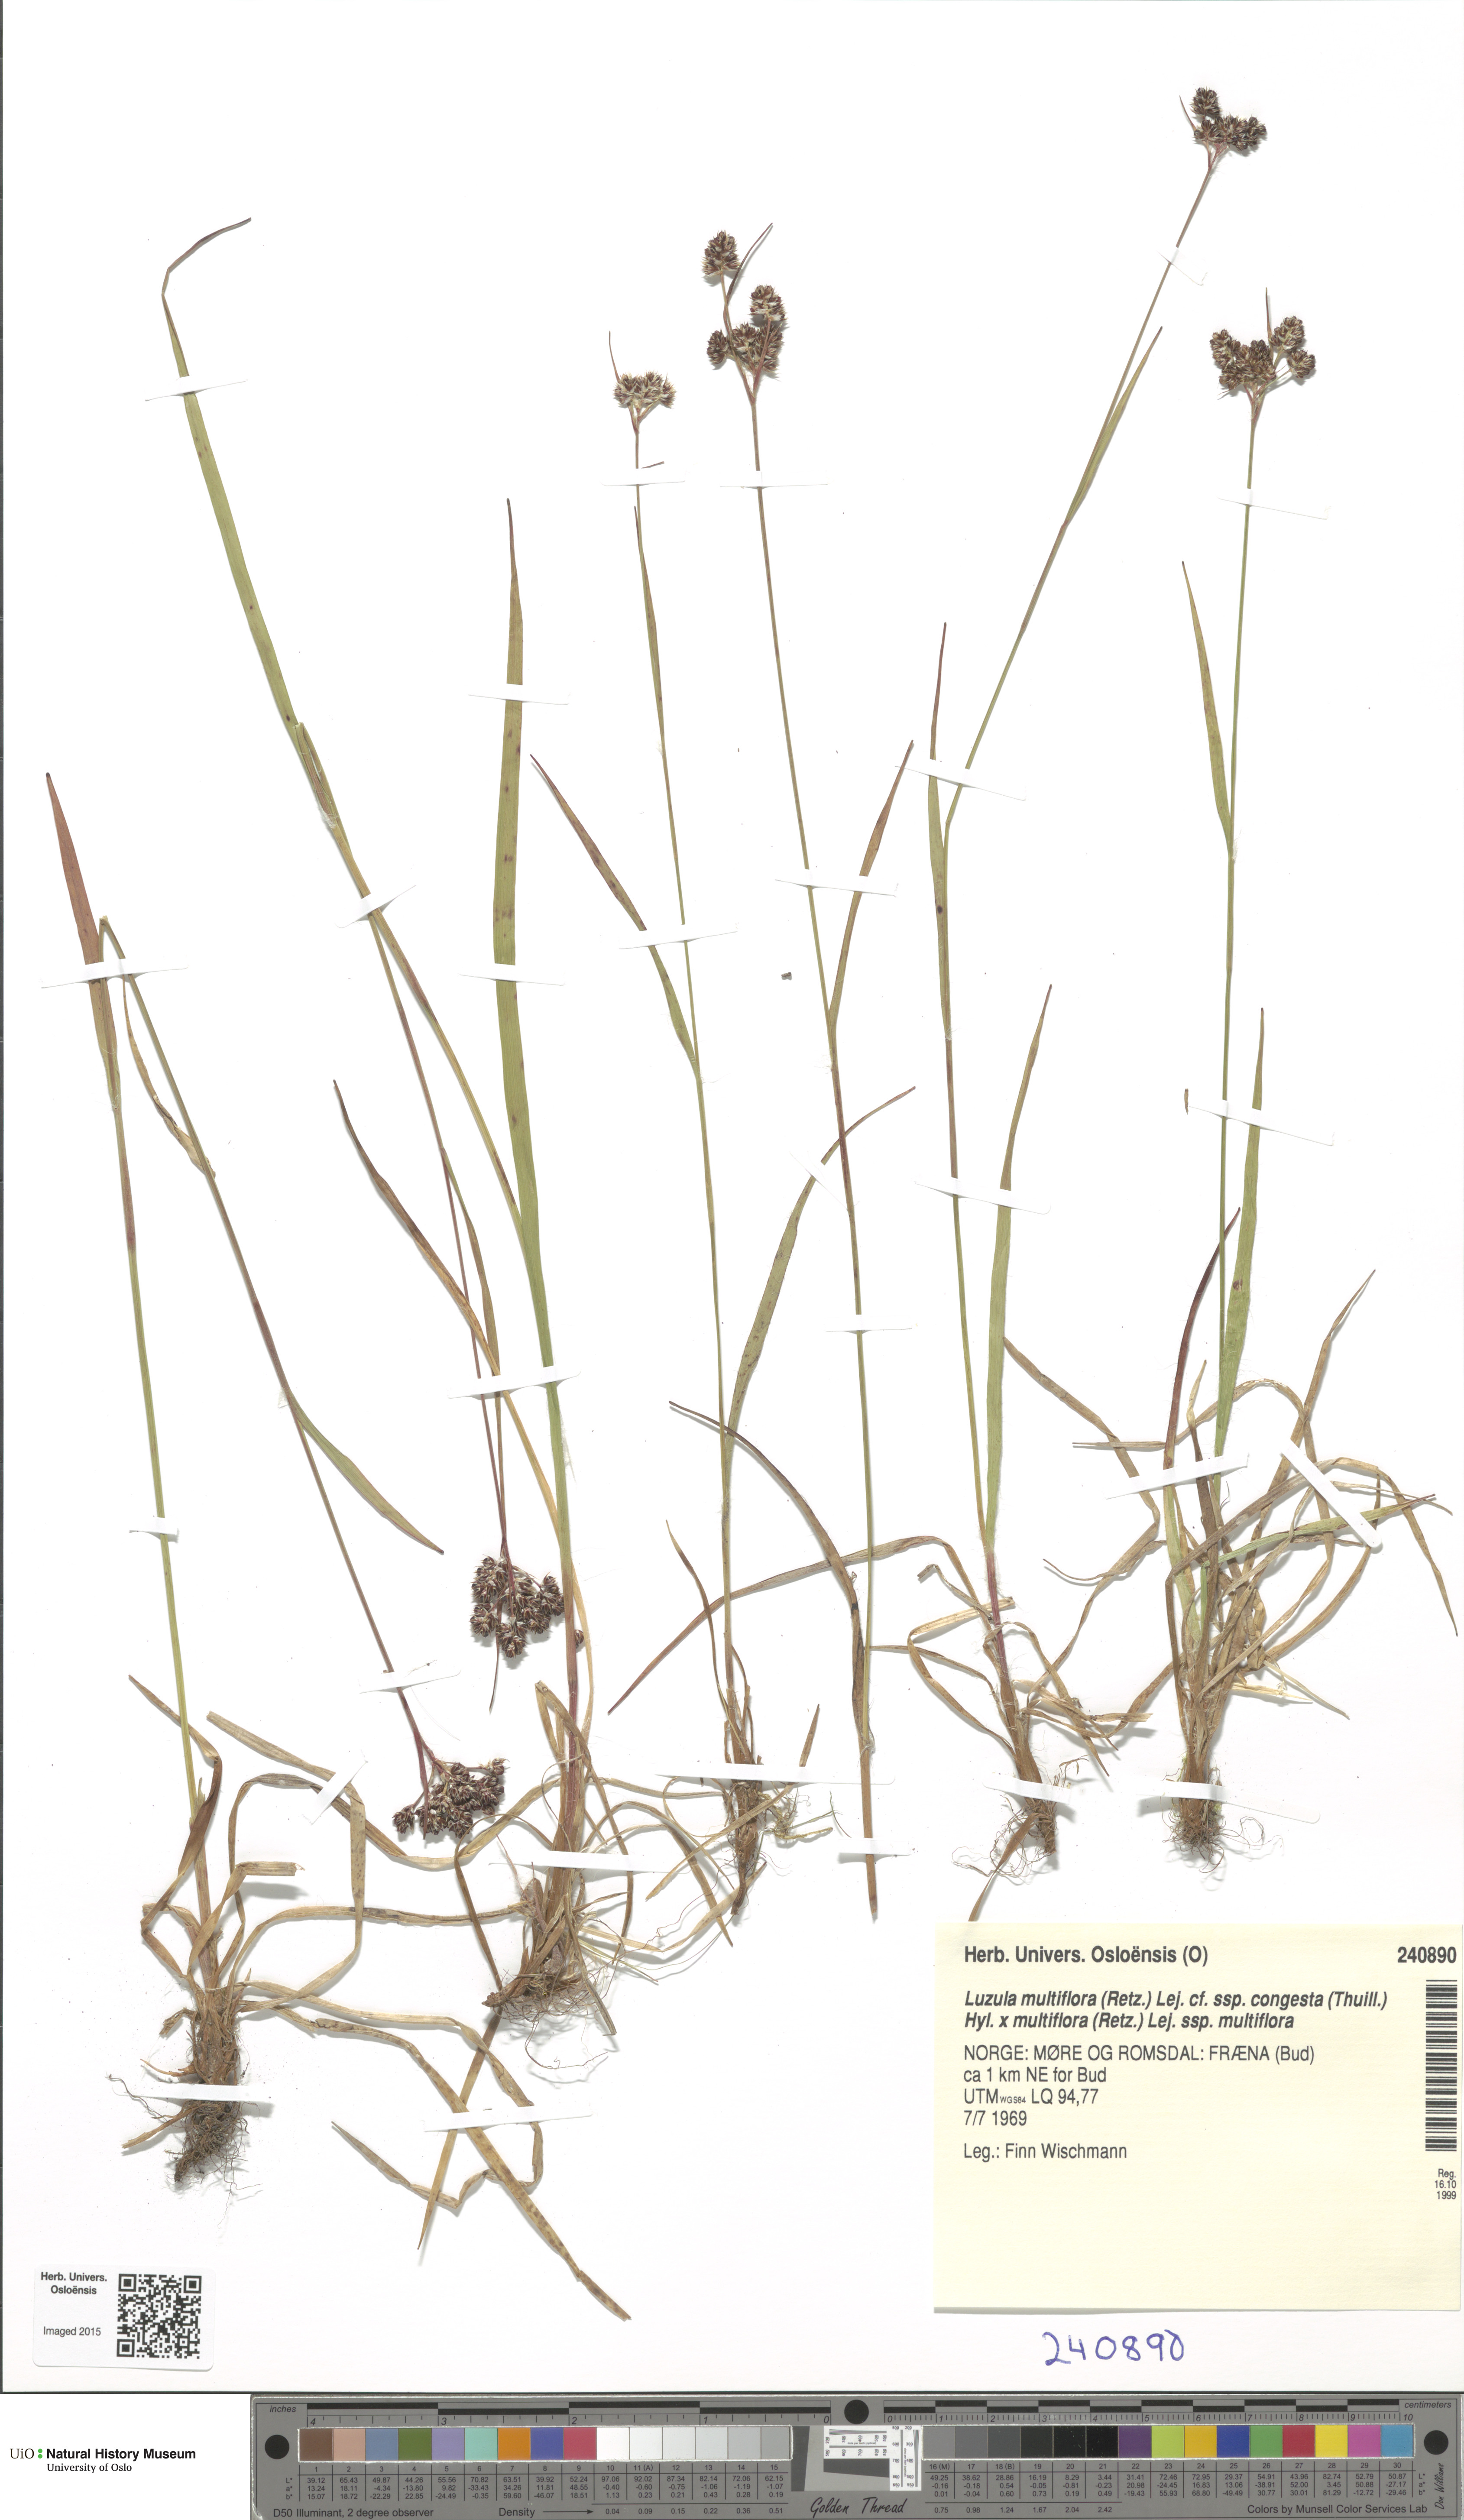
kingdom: Plantae
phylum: Tracheophyta
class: Liliopsida
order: Poales
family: Juncaceae
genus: Luzula
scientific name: Luzula
